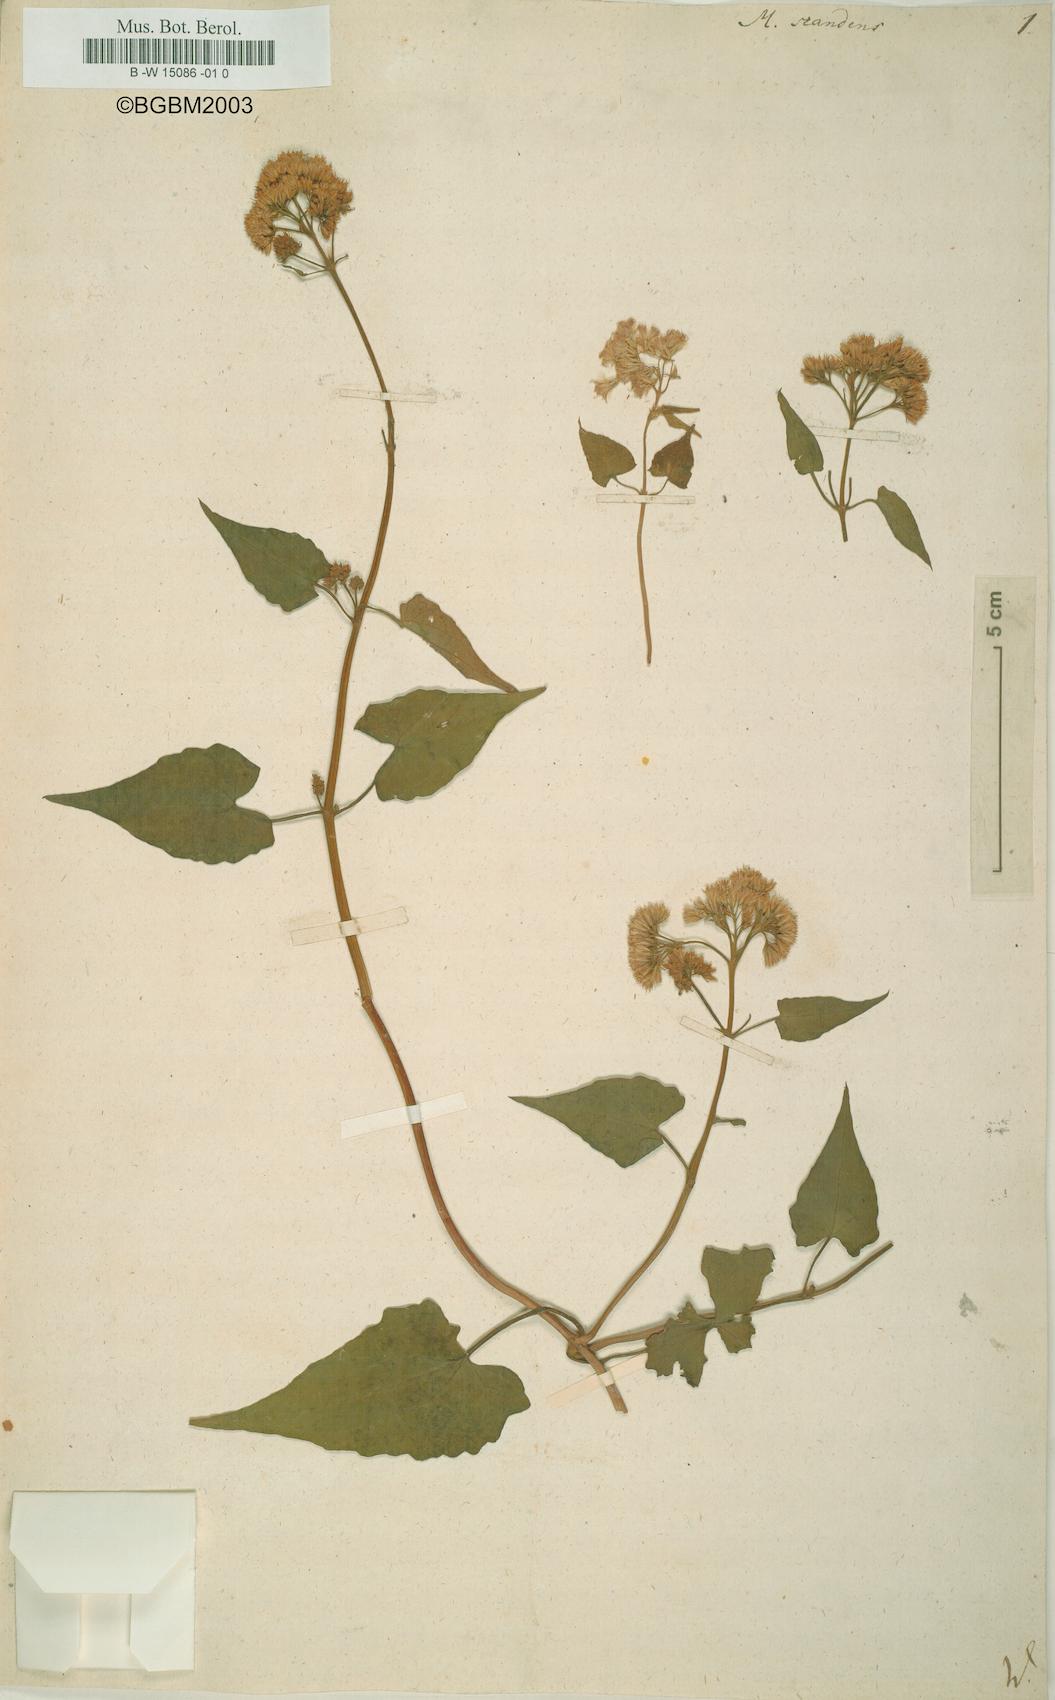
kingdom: Plantae
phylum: Tracheophyta
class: Magnoliopsida
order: Asterales
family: Asteraceae
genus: Mikania
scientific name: Mikania scandens
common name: Climbing hempvine
